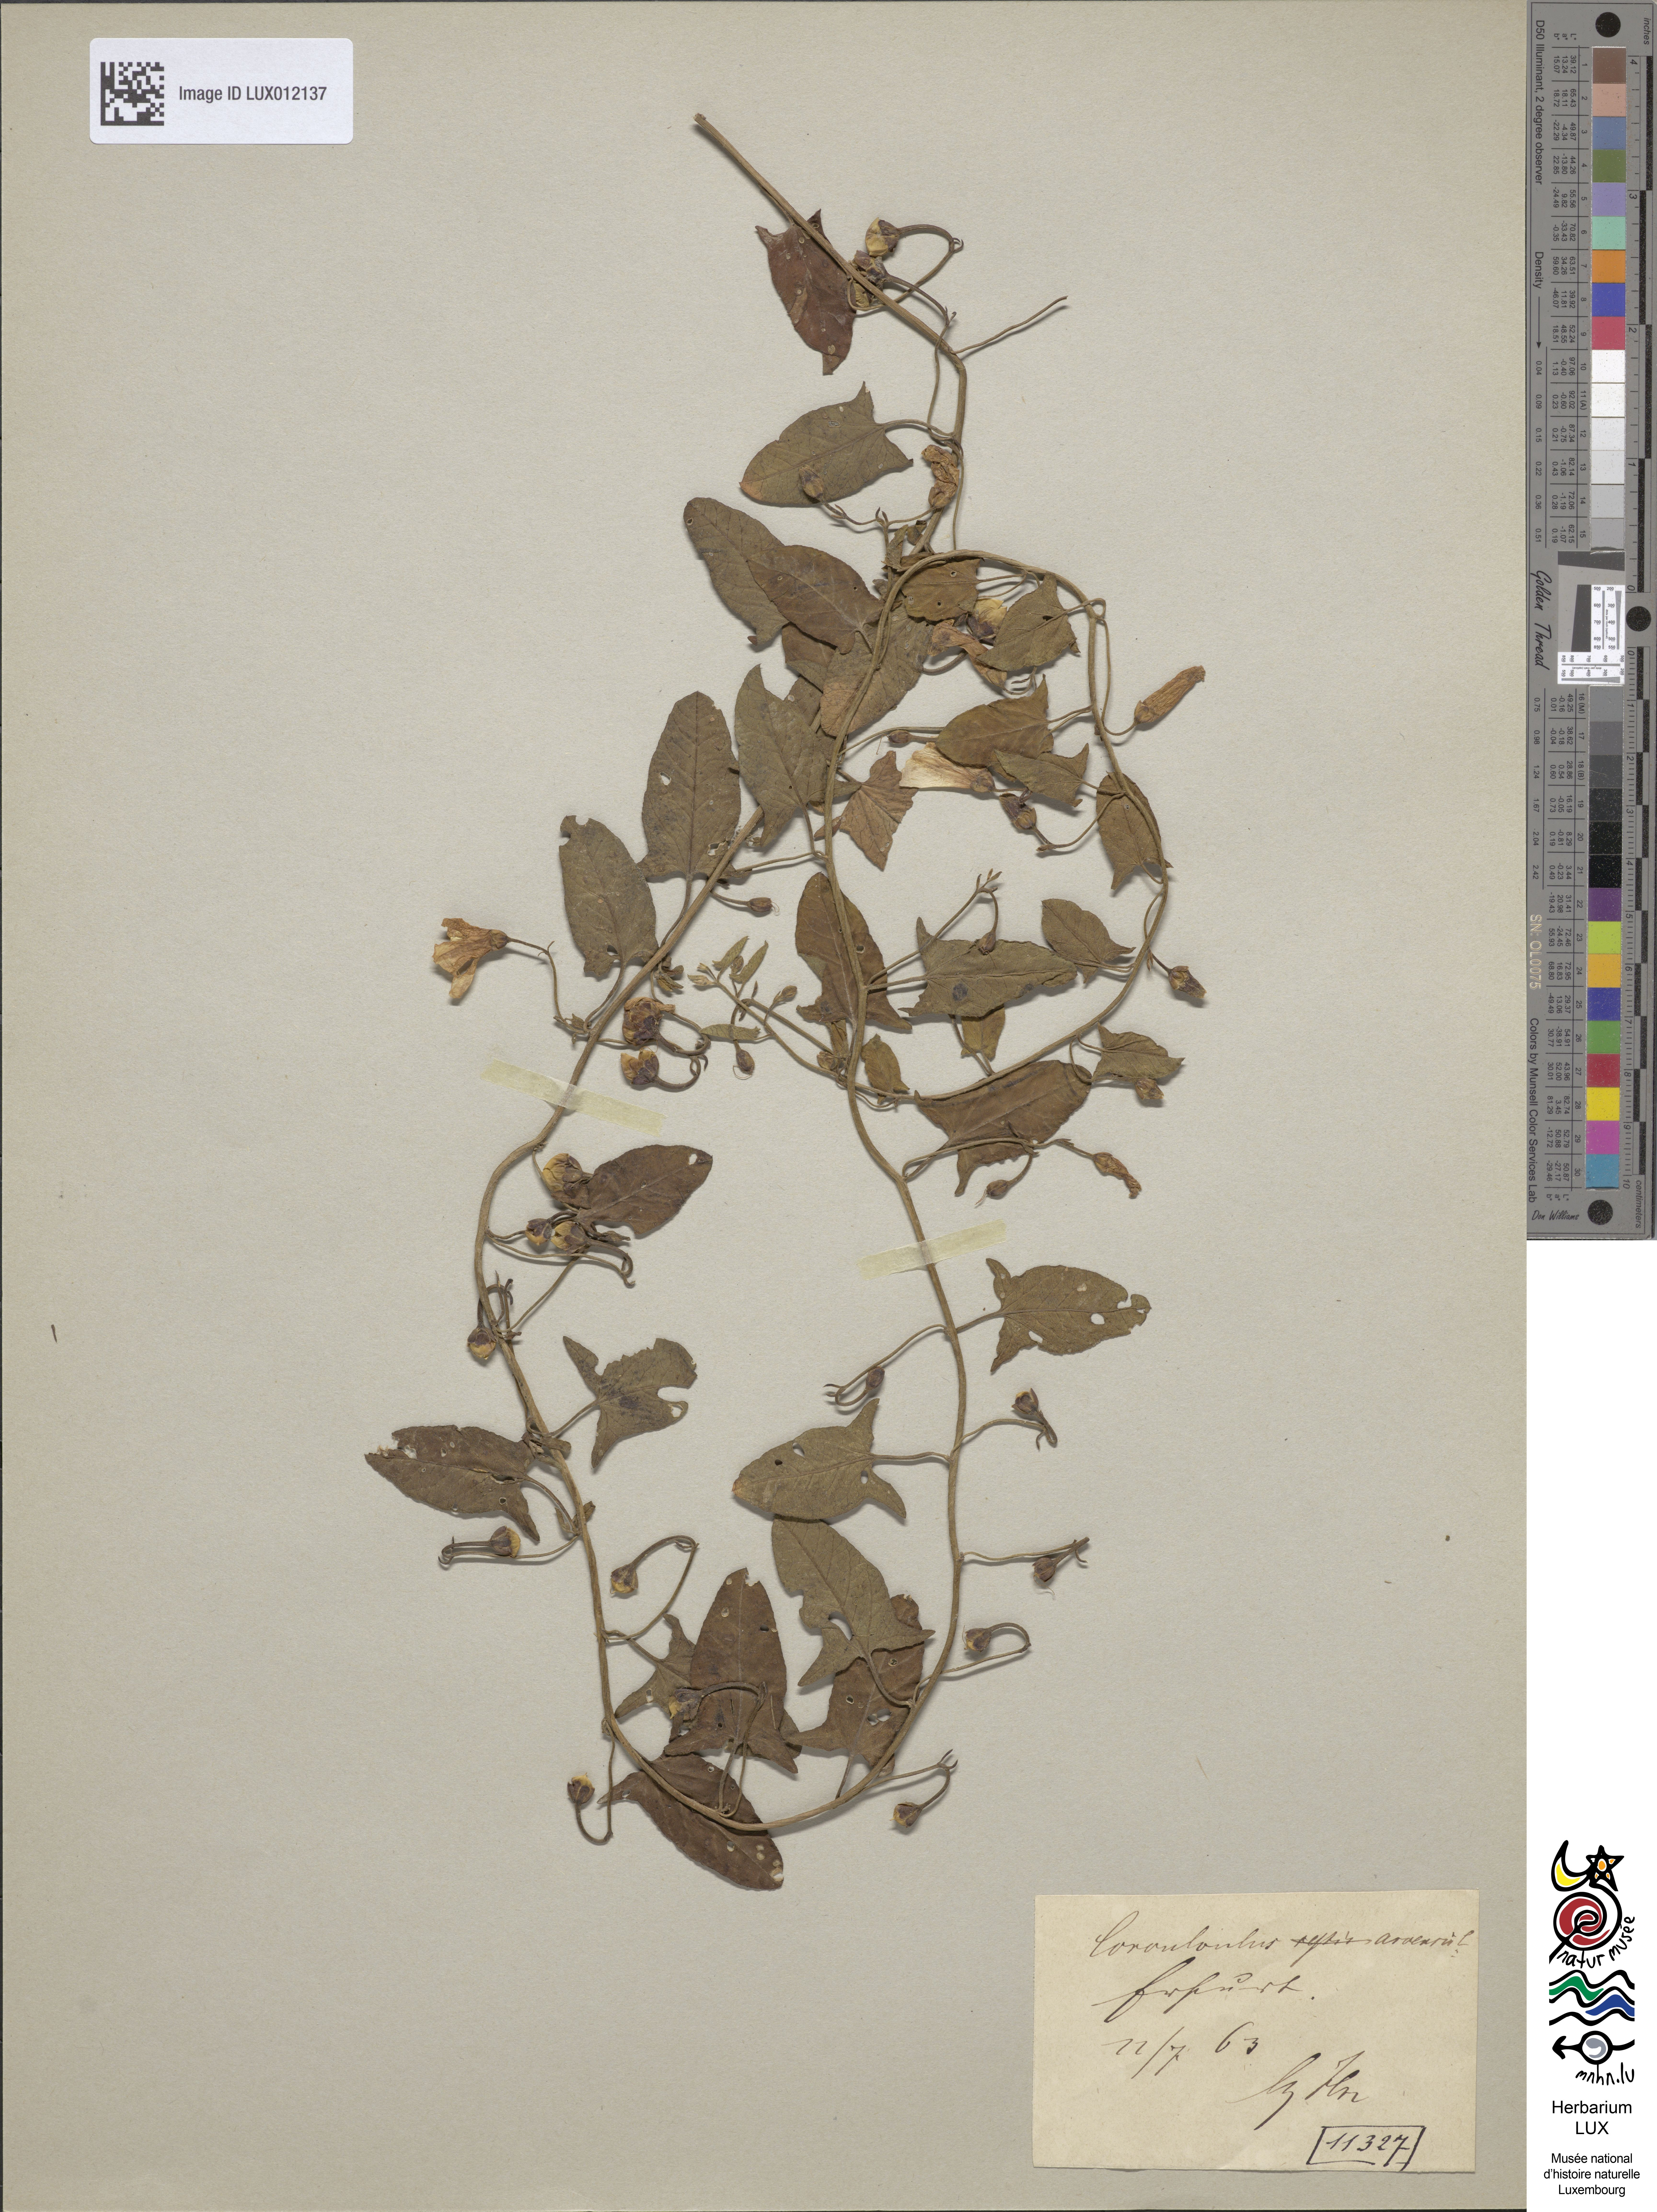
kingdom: Plantae
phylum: Tracheophyta
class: Magnoliopsida
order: Solanales
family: Convolvulaceae
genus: Convolvulus
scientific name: Convolvulus arvensis
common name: Field bindweed
